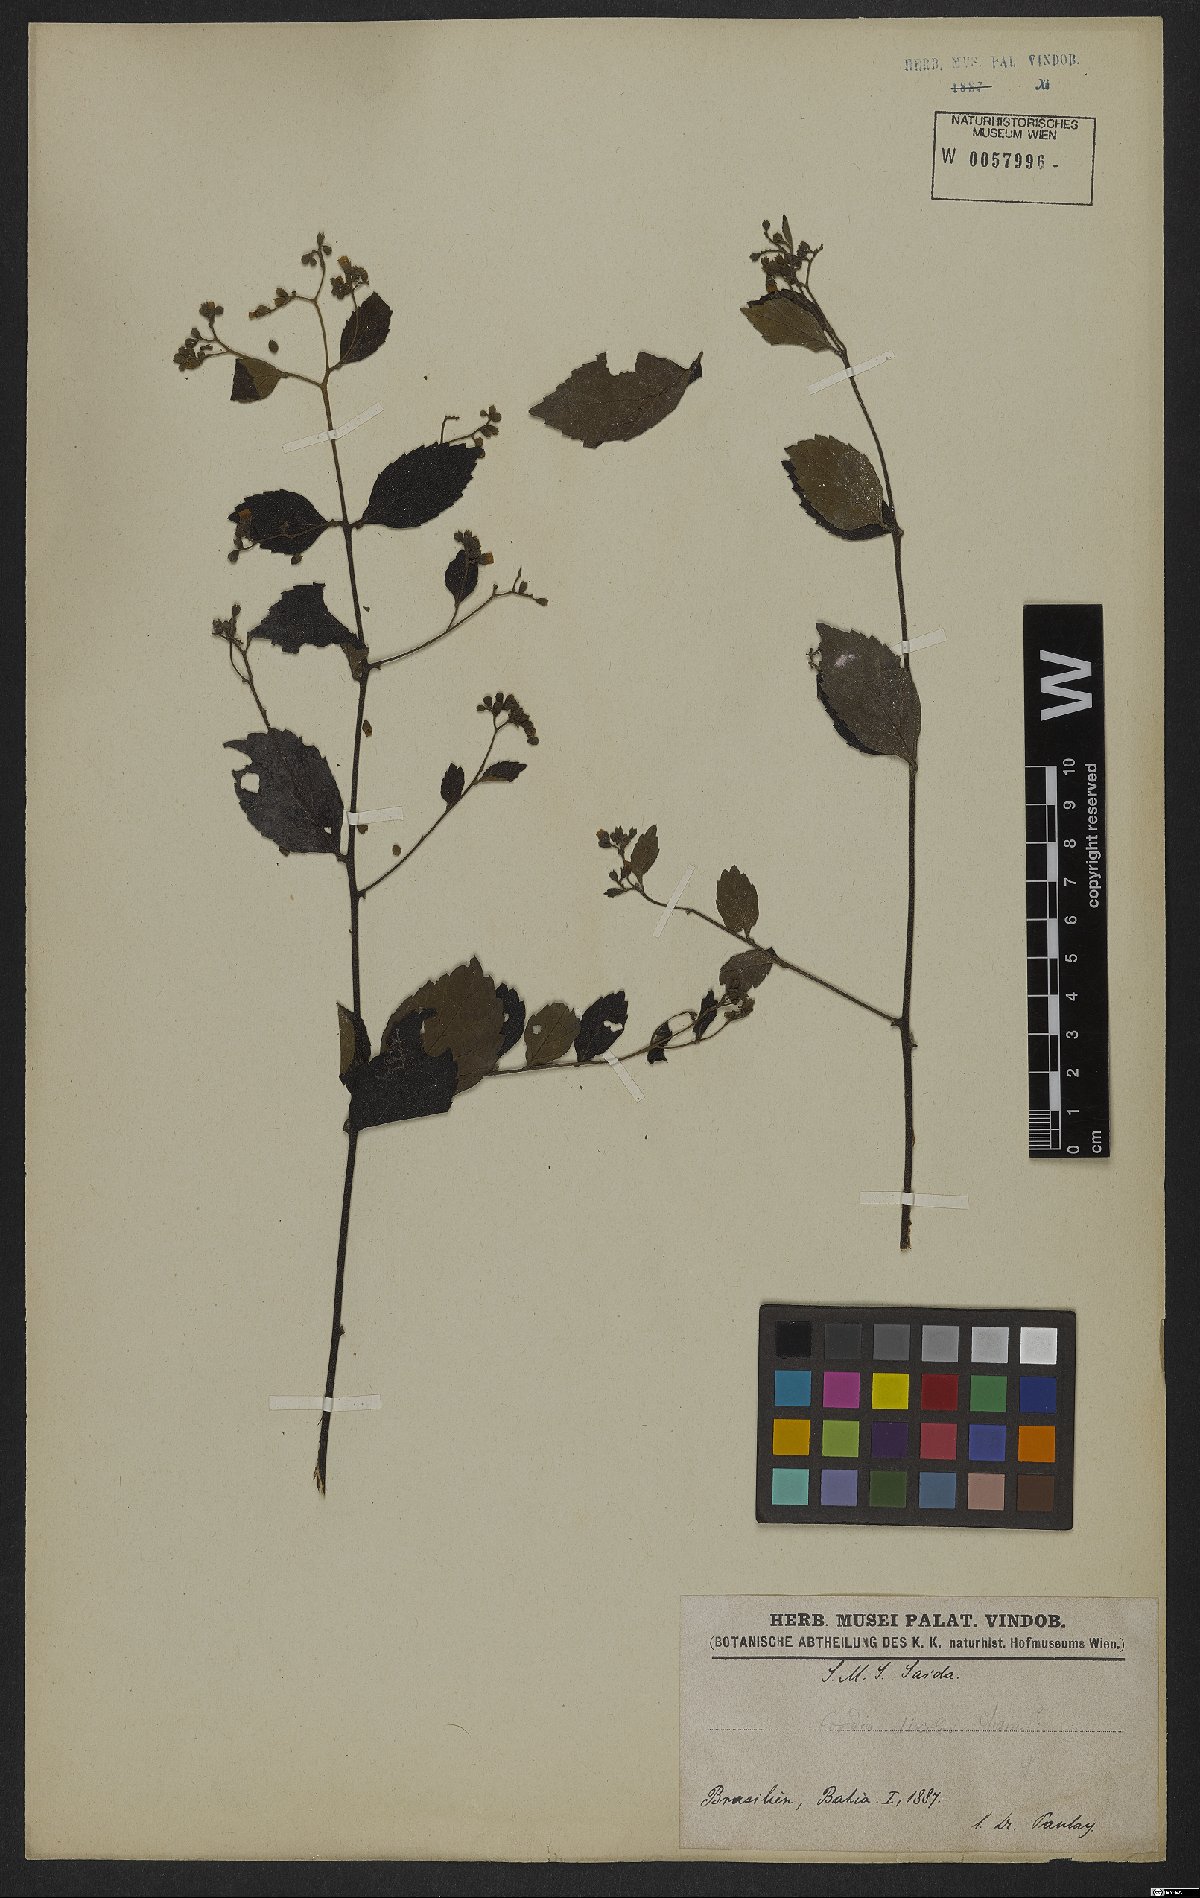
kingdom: Plantae
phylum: Tracheophyta
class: Magnoliopsida
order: Boraginales
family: Cordiaceae
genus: Varronia
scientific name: Varronia discolor
